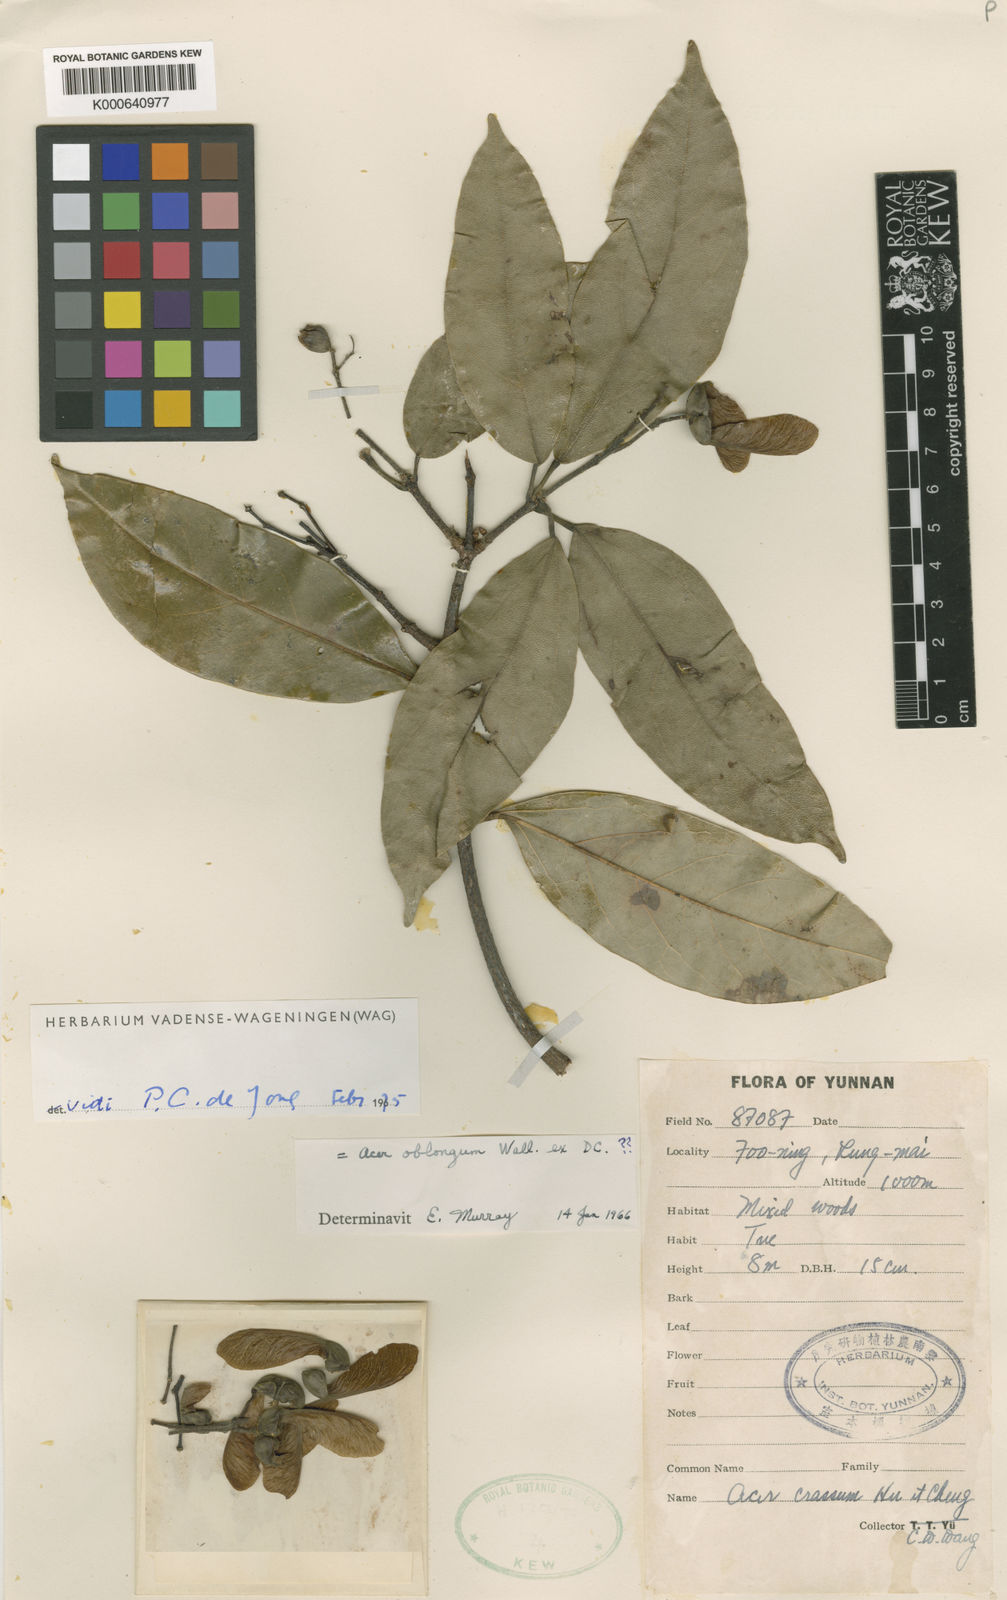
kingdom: Plantae
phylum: Tracheophyta
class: Magnoliopsida
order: Sapindales
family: Sapindaceae
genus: Acer
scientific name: Acer crassum
